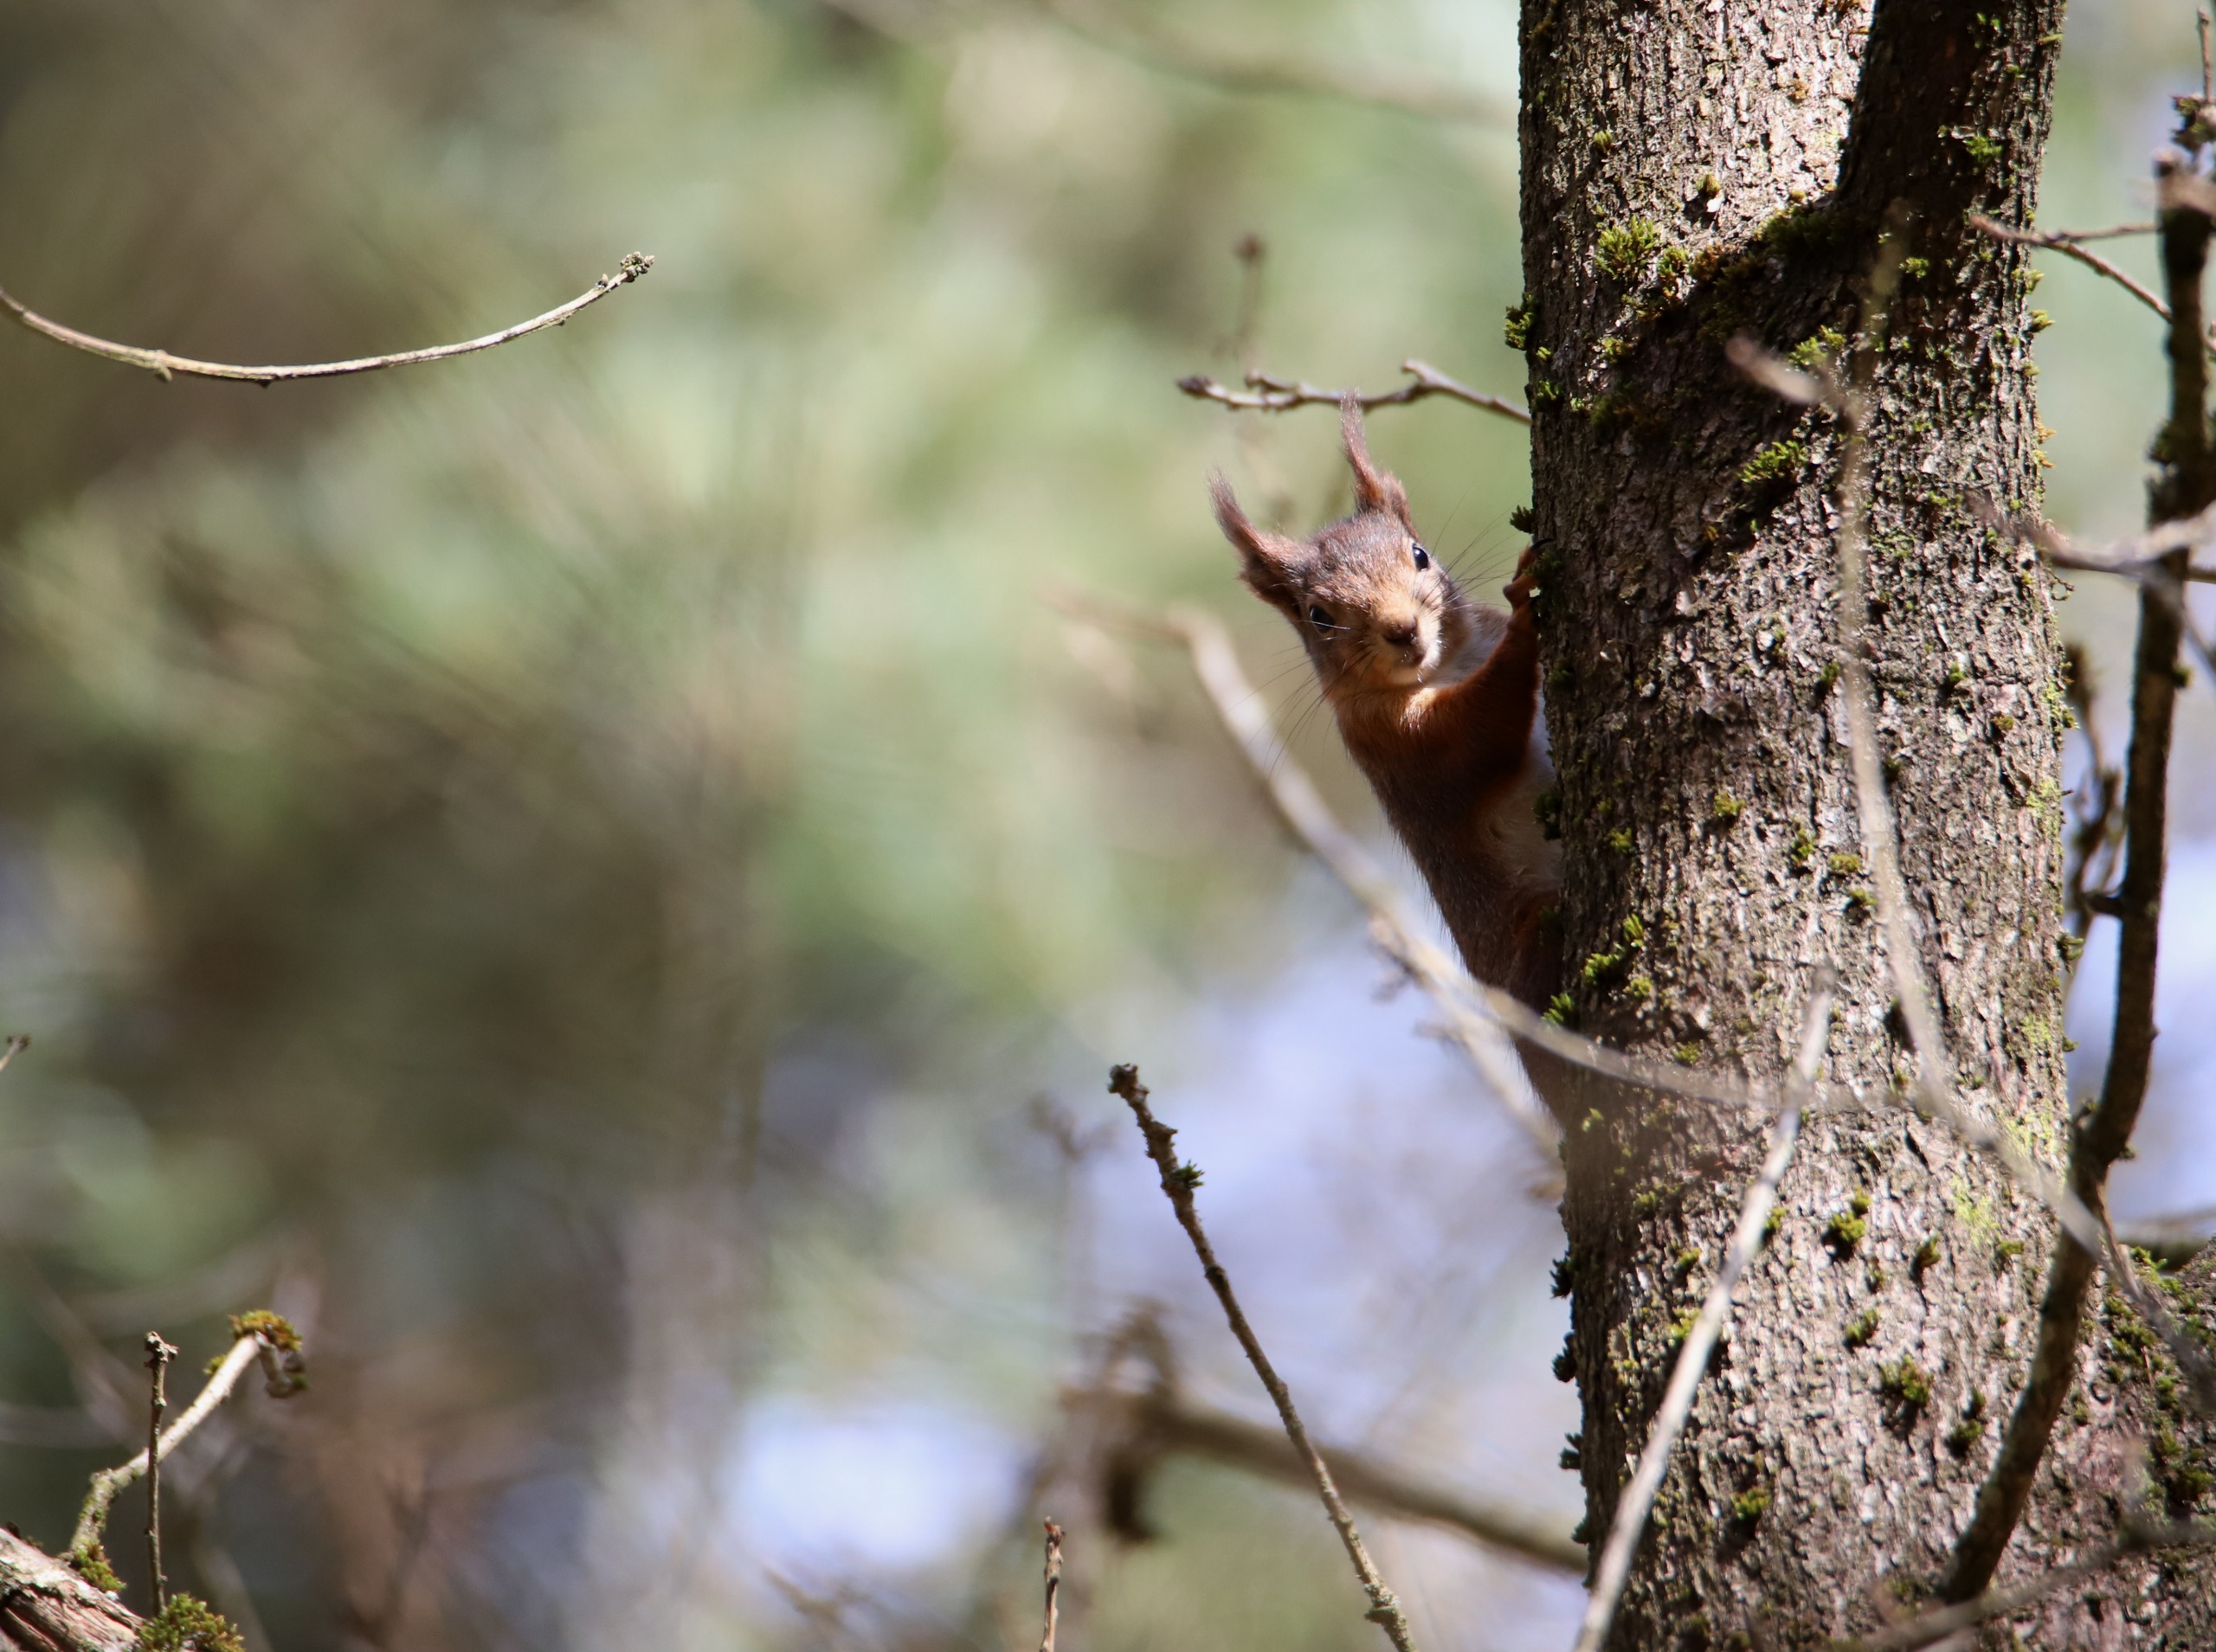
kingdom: Animalia
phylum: Chordata
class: Mammalia
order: Rodentia
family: Sciuridae
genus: Sciurus
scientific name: Sciurus vulgaris
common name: Egern
